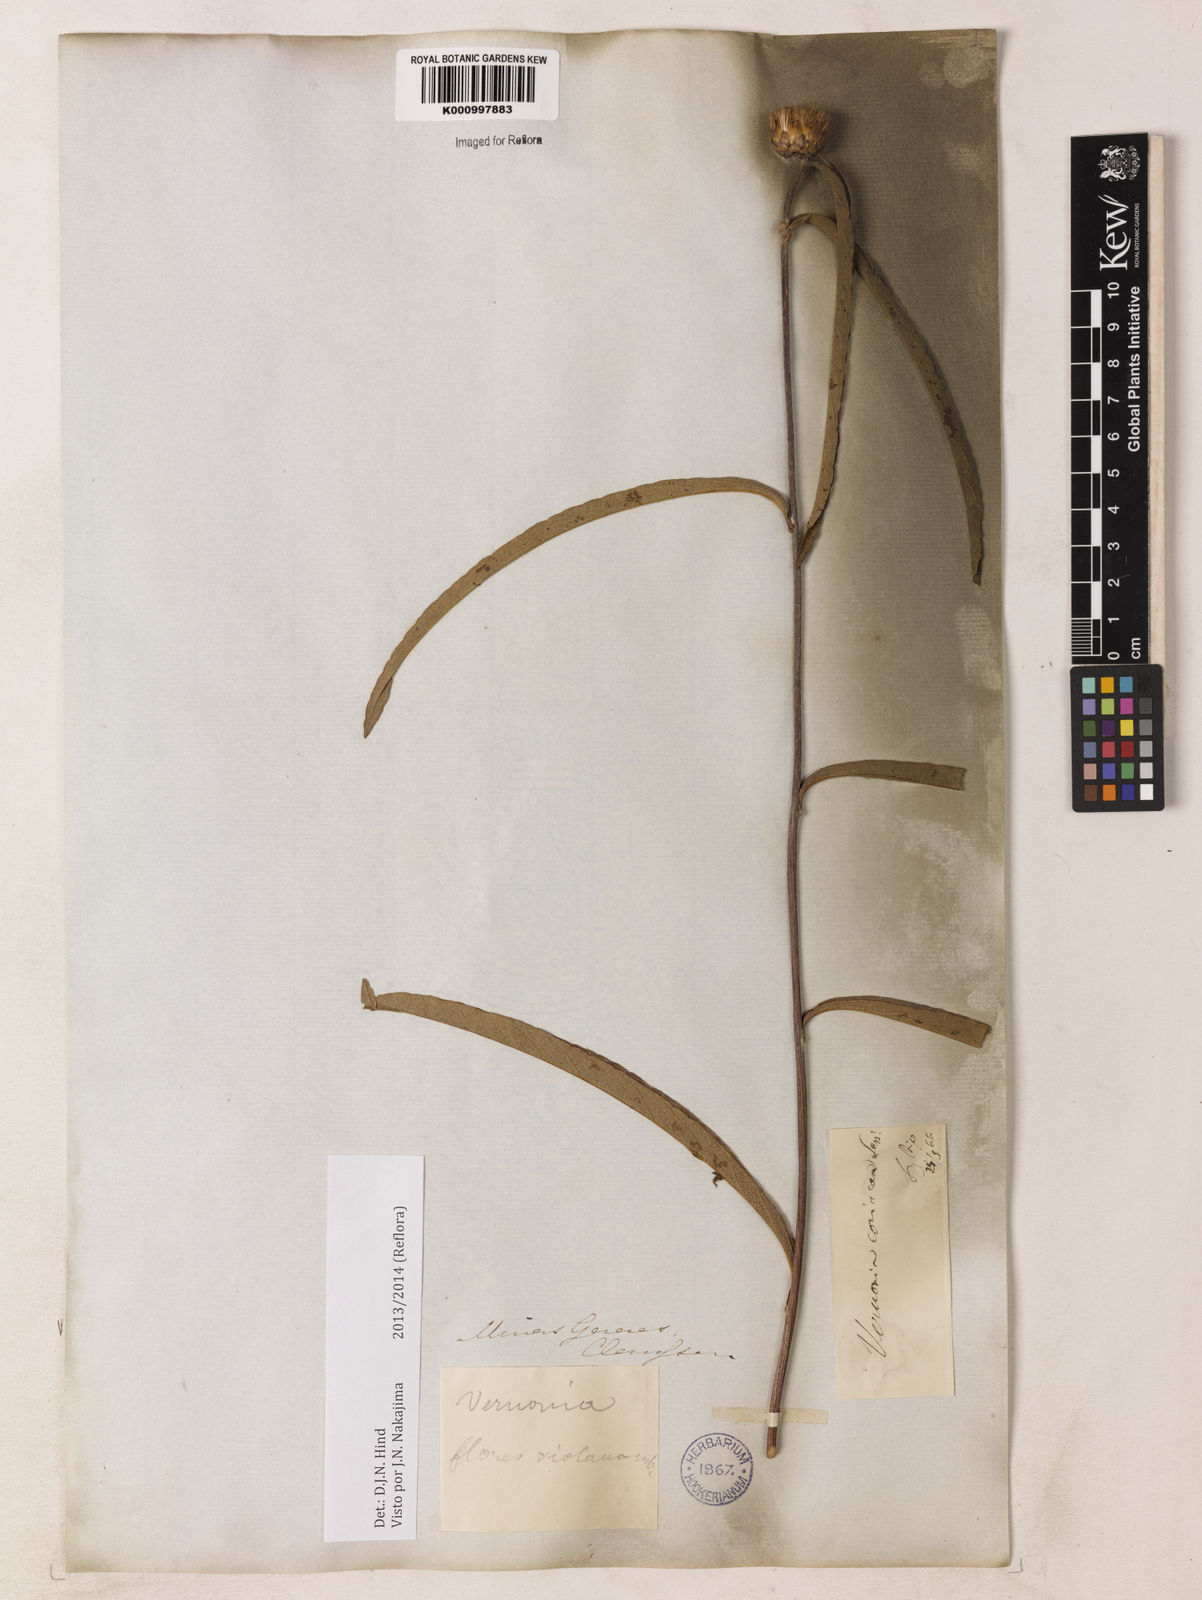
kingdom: Plantae
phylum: Tracheophyta
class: Magnoliopsida
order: Asterales
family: Asteraceae
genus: Lessingianthus
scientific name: Lessingianthus coriaceus
